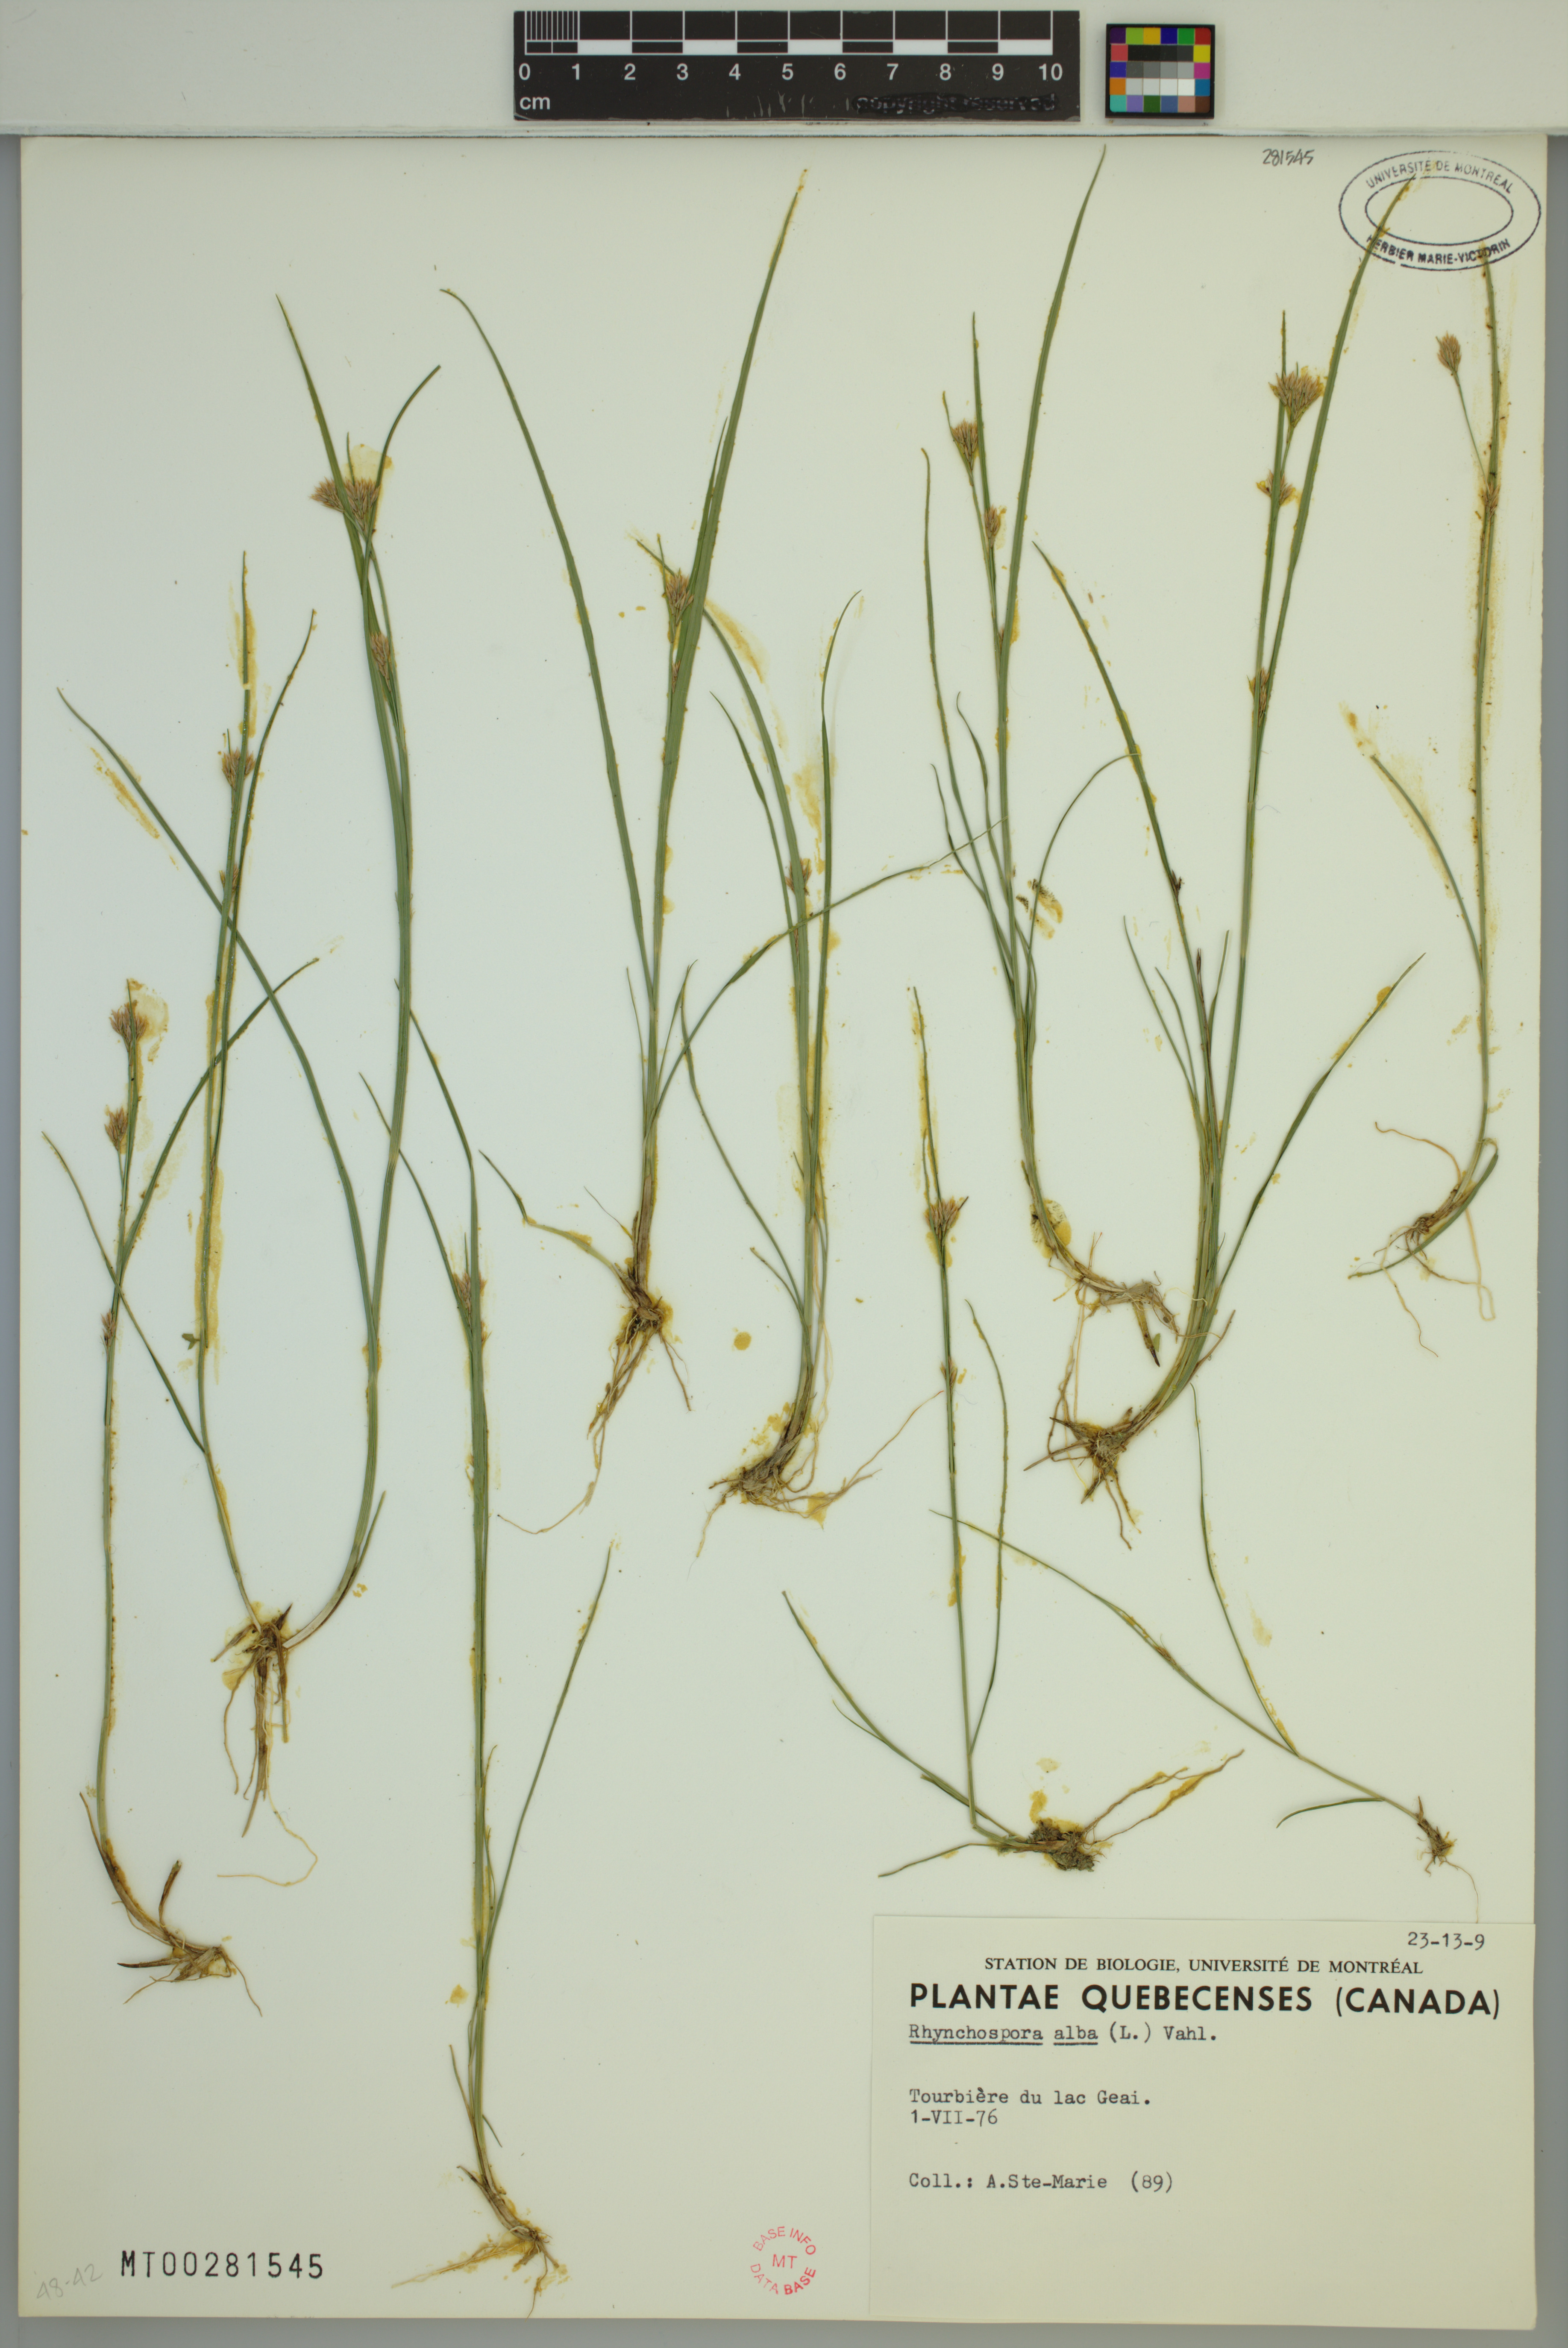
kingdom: Plantae
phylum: Tracheophyta
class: Liliopsida
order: Poales
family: Cyperaceae
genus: Rhynchospora
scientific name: Rhynchospora alba
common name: White beak-sedge
